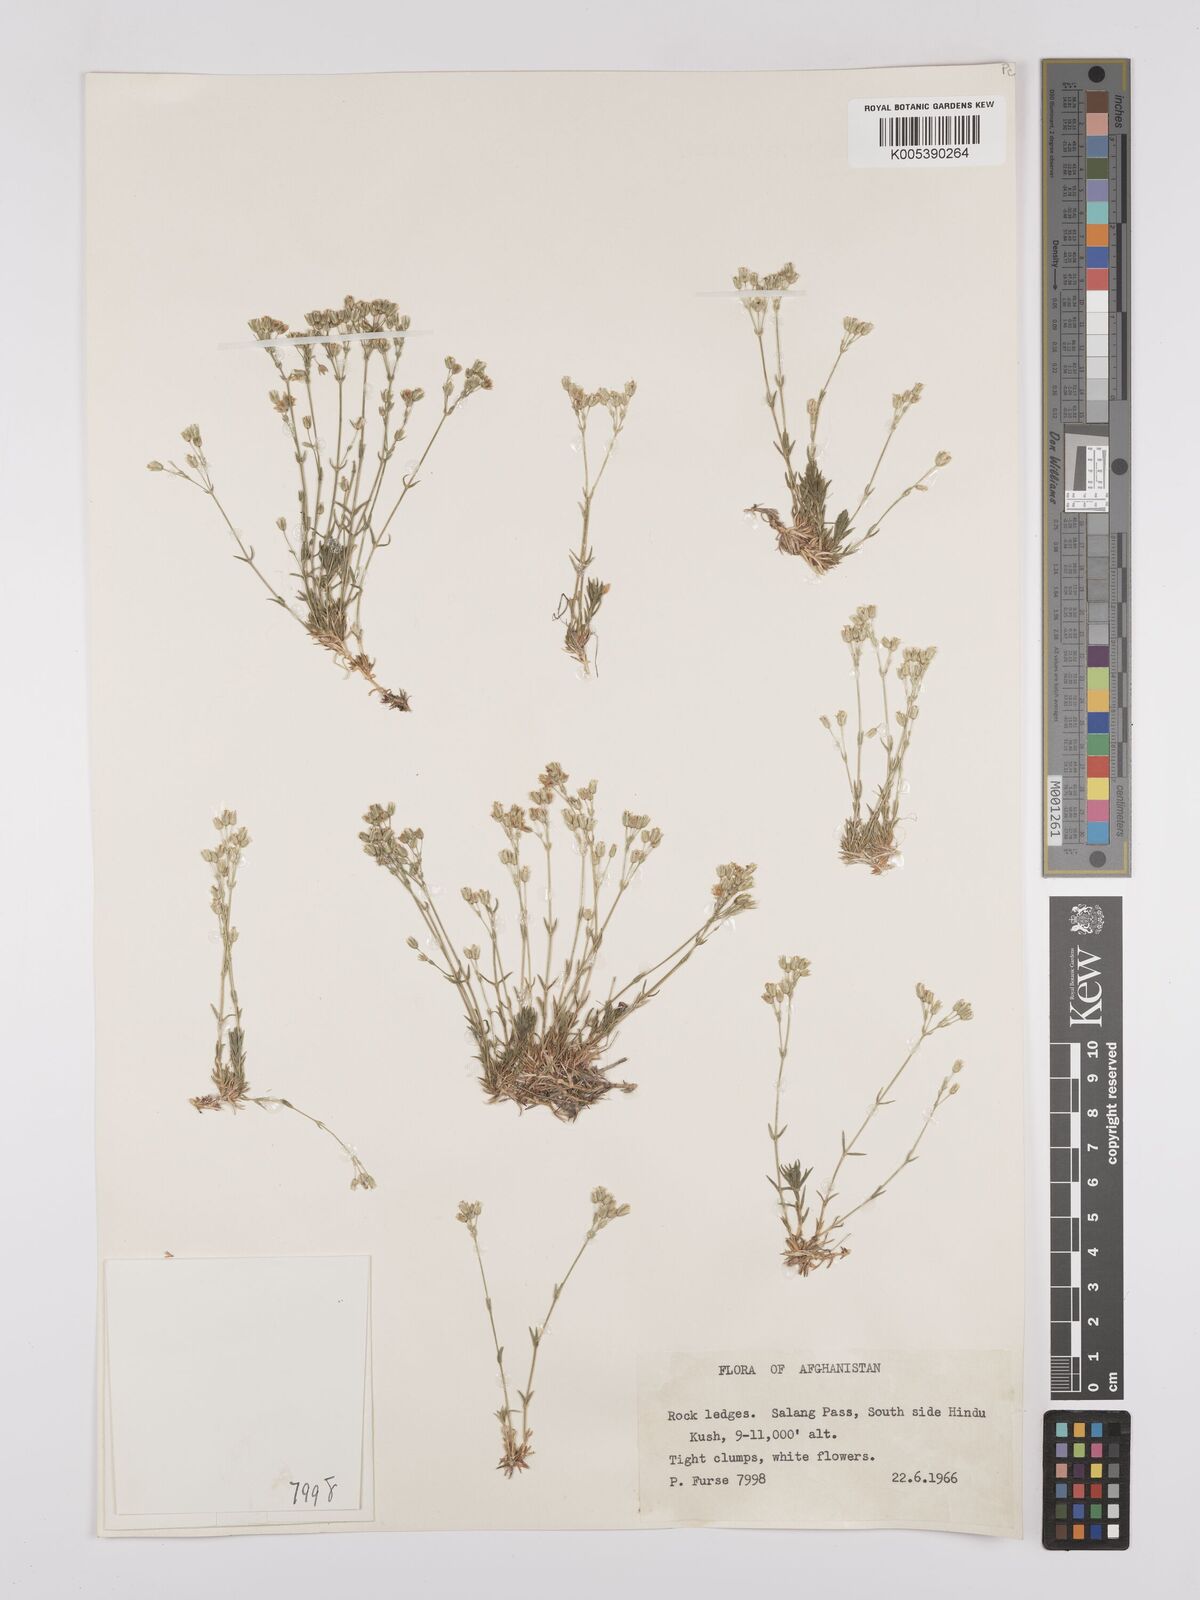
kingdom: Plantae
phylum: Tracheophyta
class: Magnoliopsida
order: Caryophyllales
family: Caryophyllaceae
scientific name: Caryophyllaceae
